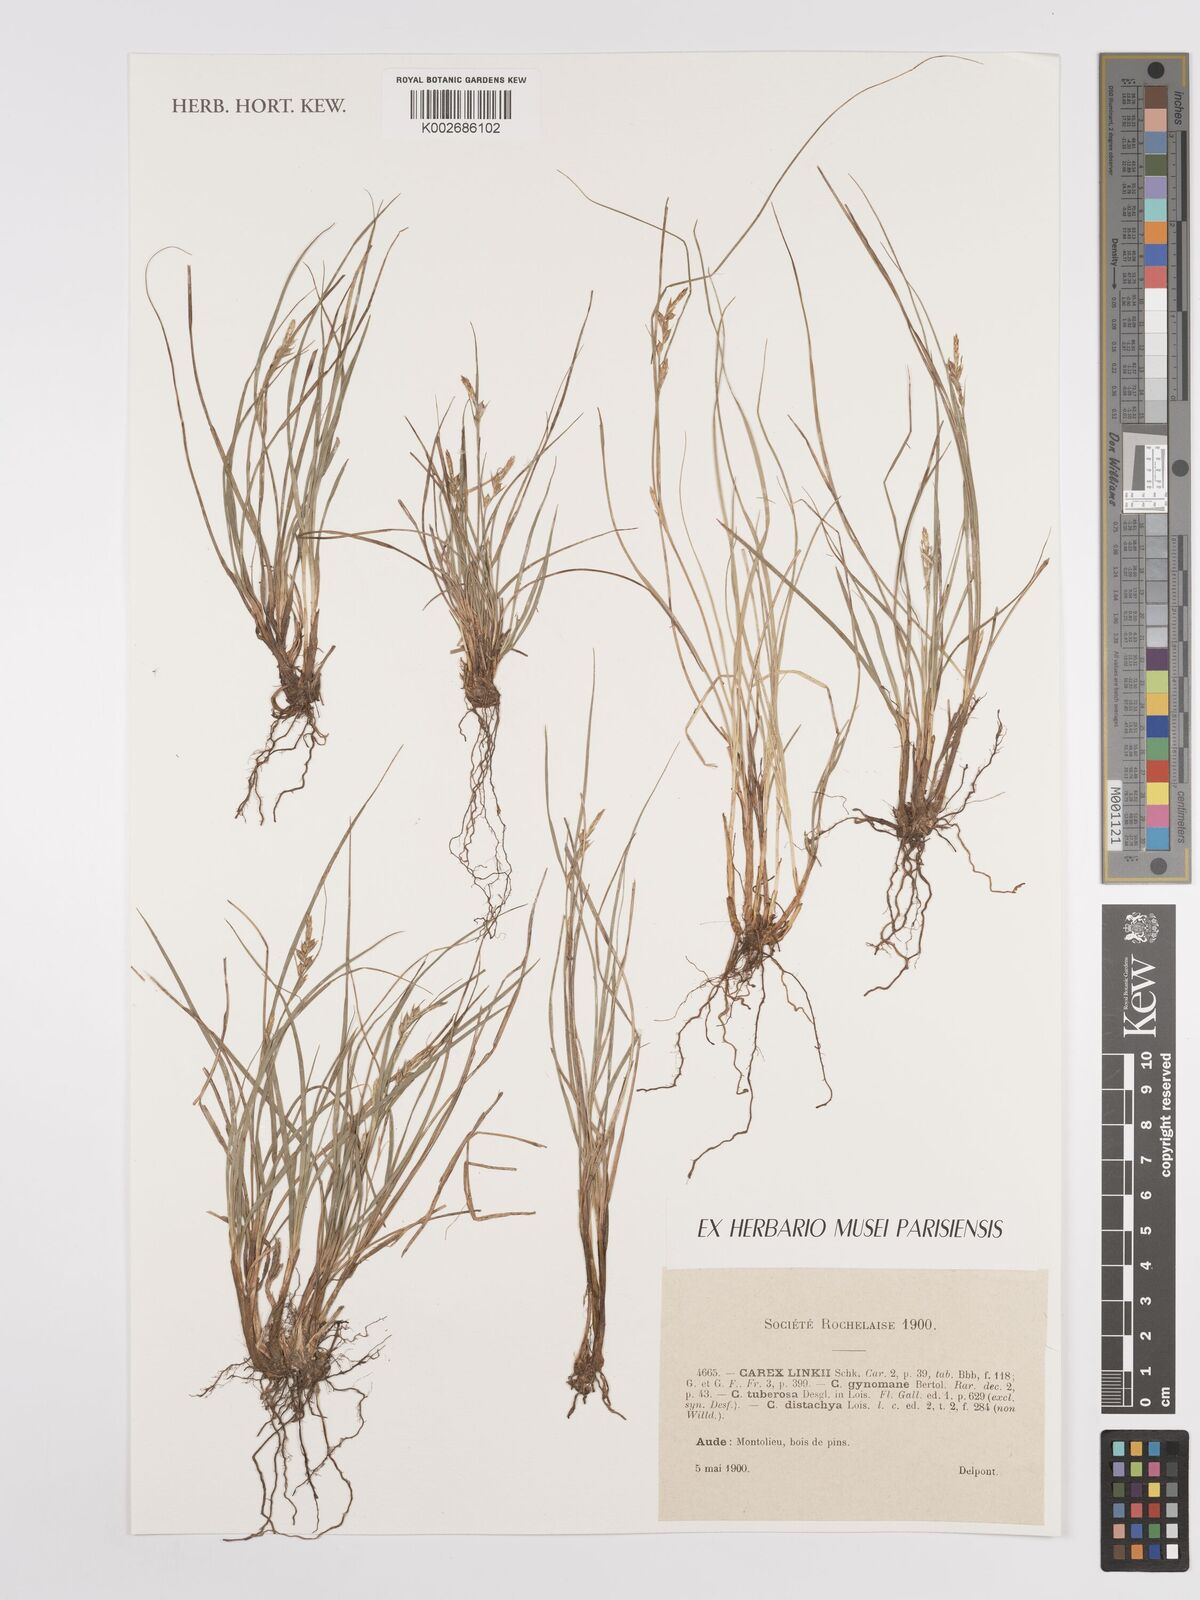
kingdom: Plantae
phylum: Tracheophyta
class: Liliopsida
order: Poales
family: Cyperaceae
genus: Carex
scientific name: Carex distachya
